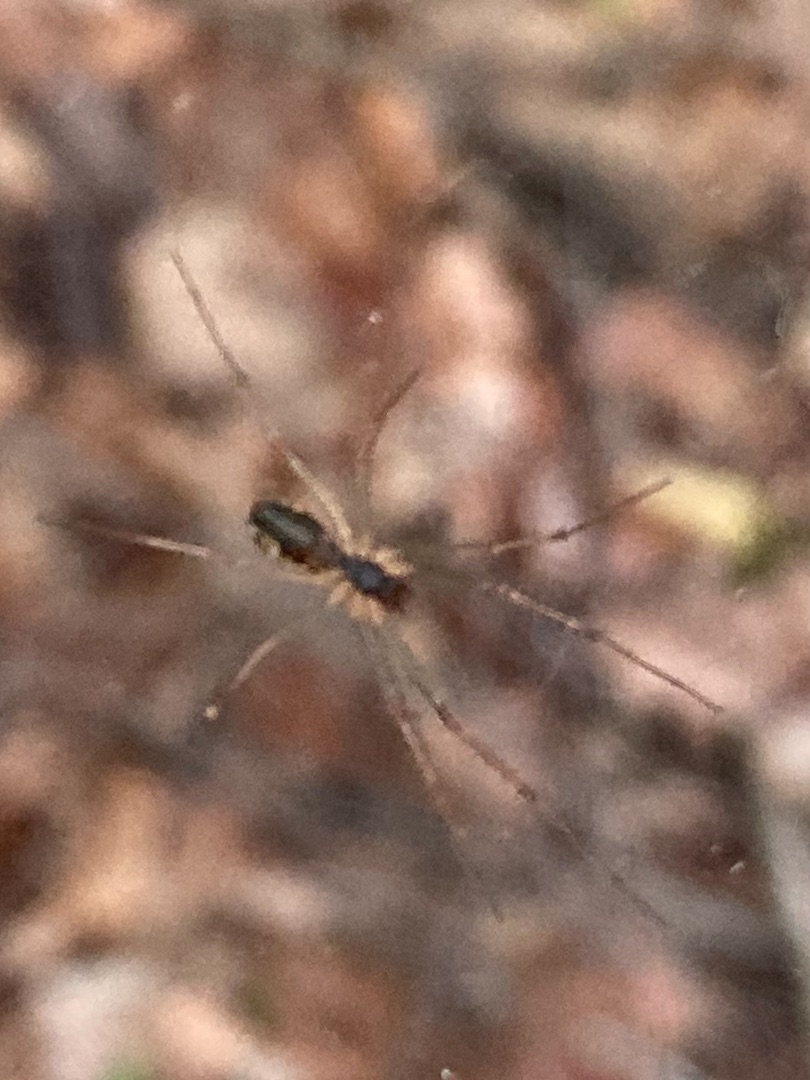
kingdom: Animalia
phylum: Arthropoda
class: Arachnida
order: Araneae
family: Linyphiidae
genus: Linyphia
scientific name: Linyphia triangularis
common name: Almindelig baldakinspinder
